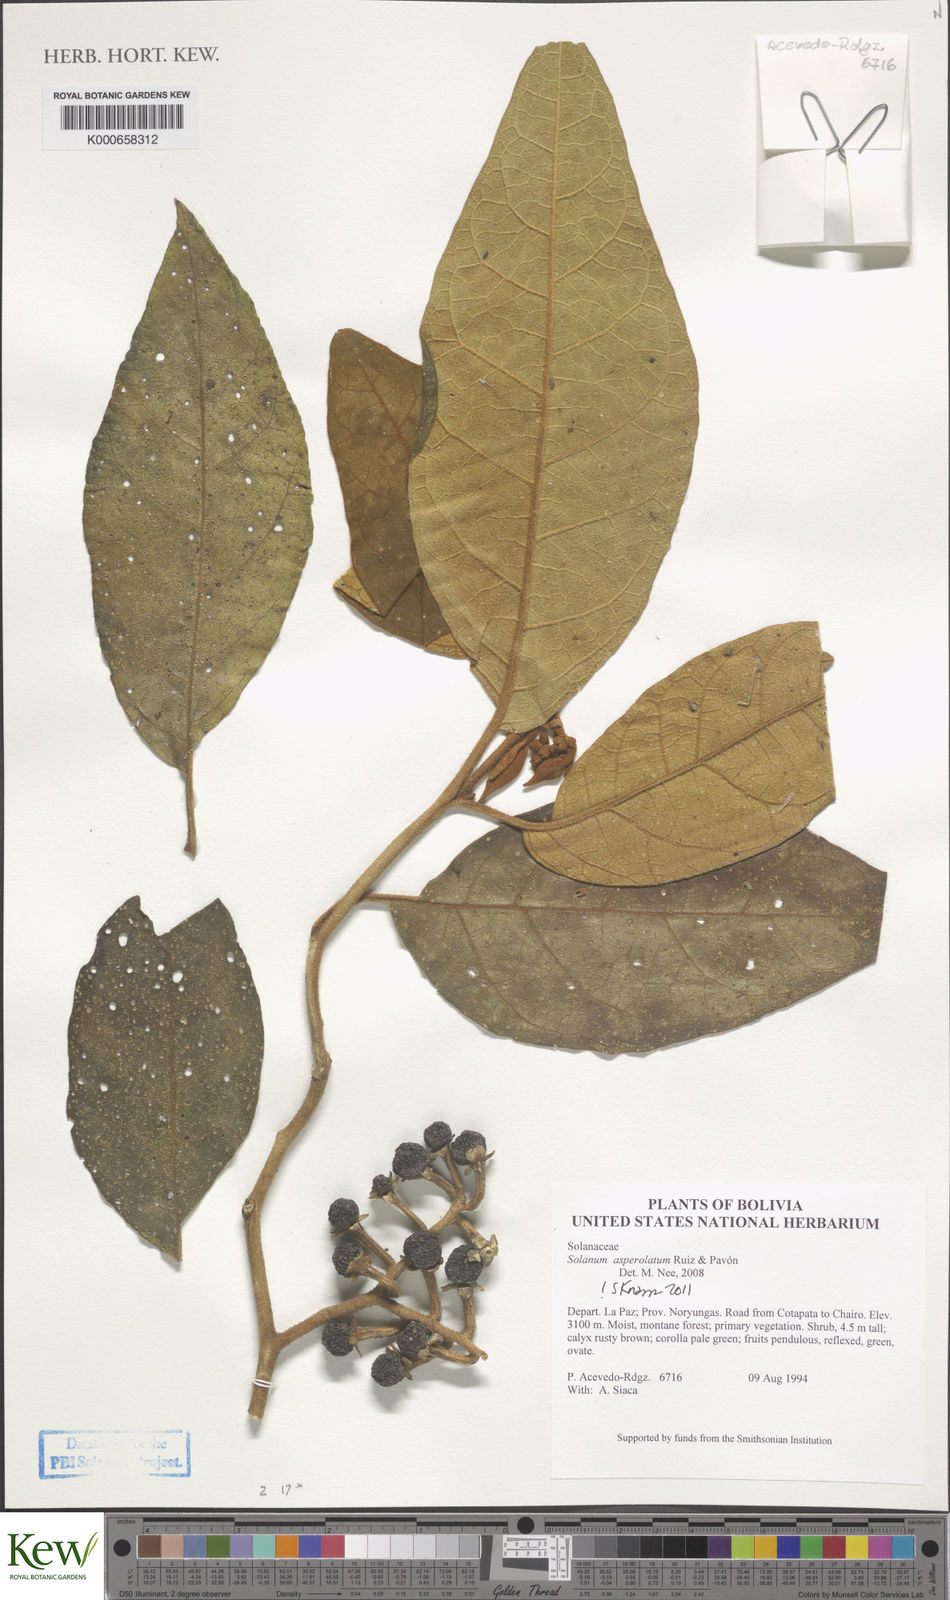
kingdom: Plantae
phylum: Tracheophyta
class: Magnoliopsida
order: Solanales
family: Solanaceae
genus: Solanum
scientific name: Solanum asperolanatum
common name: Devil's-fig
